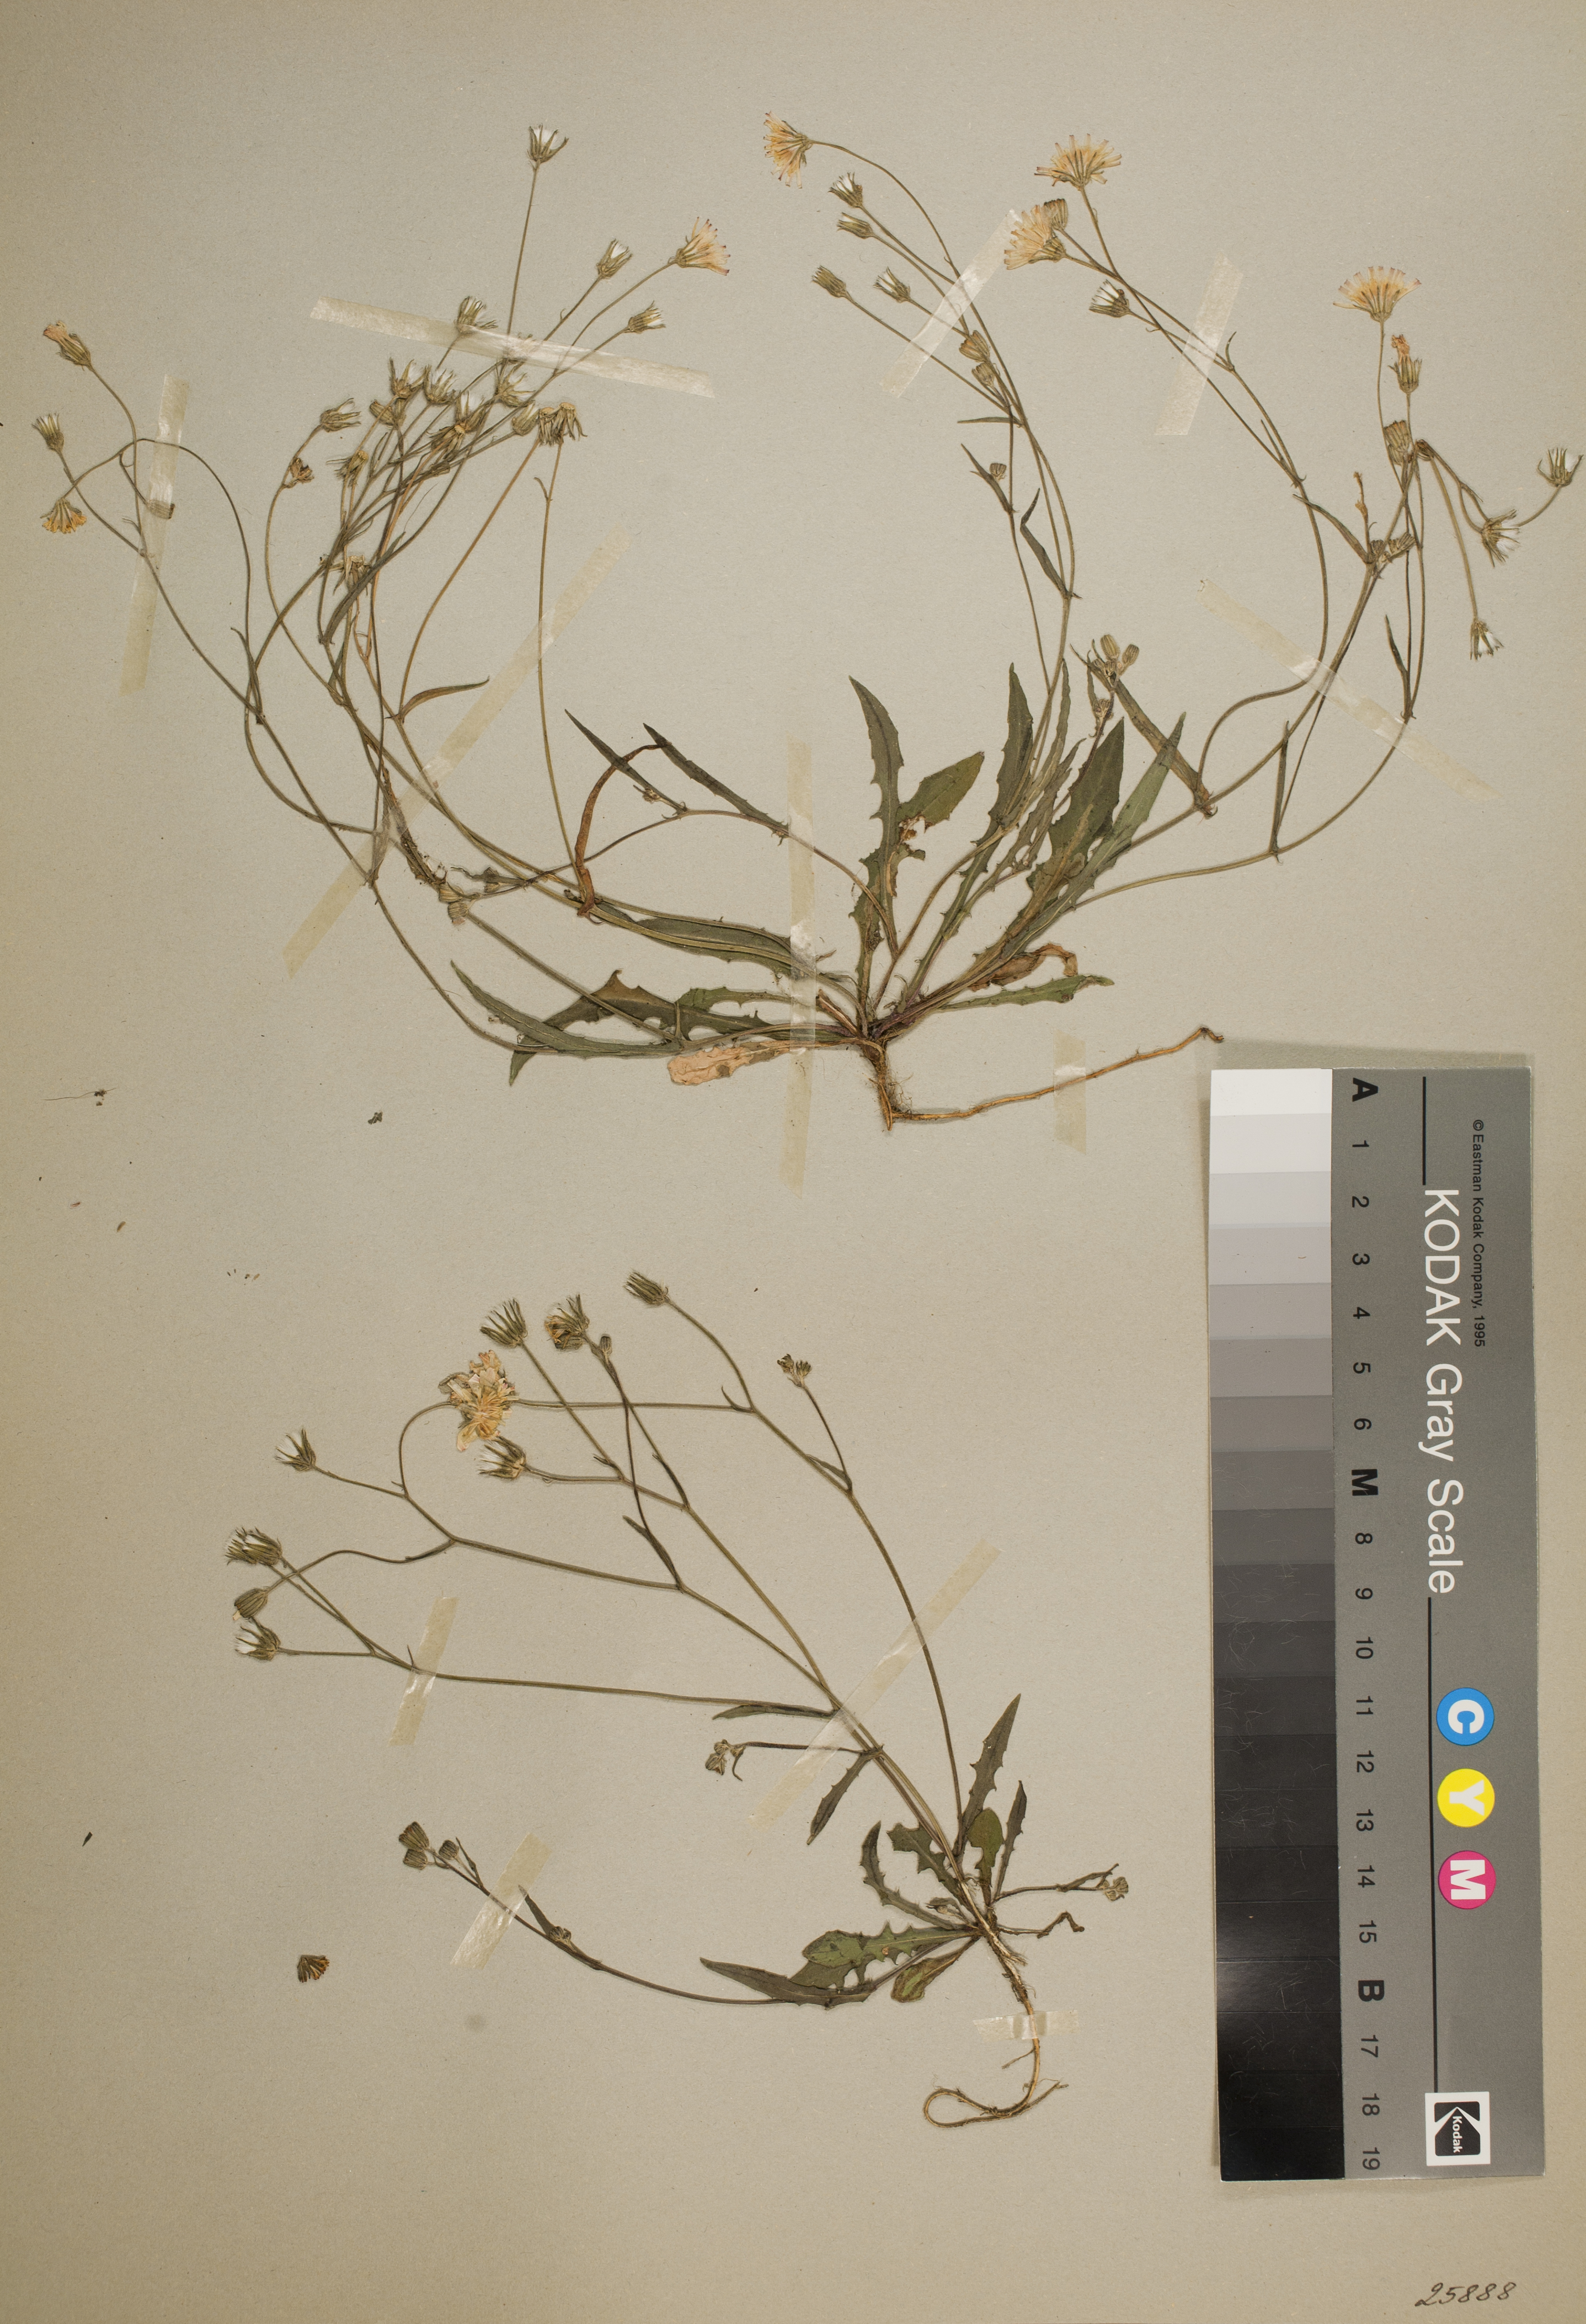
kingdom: Plantae
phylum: Tracheophyta
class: Magnoliopsida
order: Asterales
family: Asteraceae
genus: Crepis
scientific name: Crepis capillaris
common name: Smooth hawksbeard
